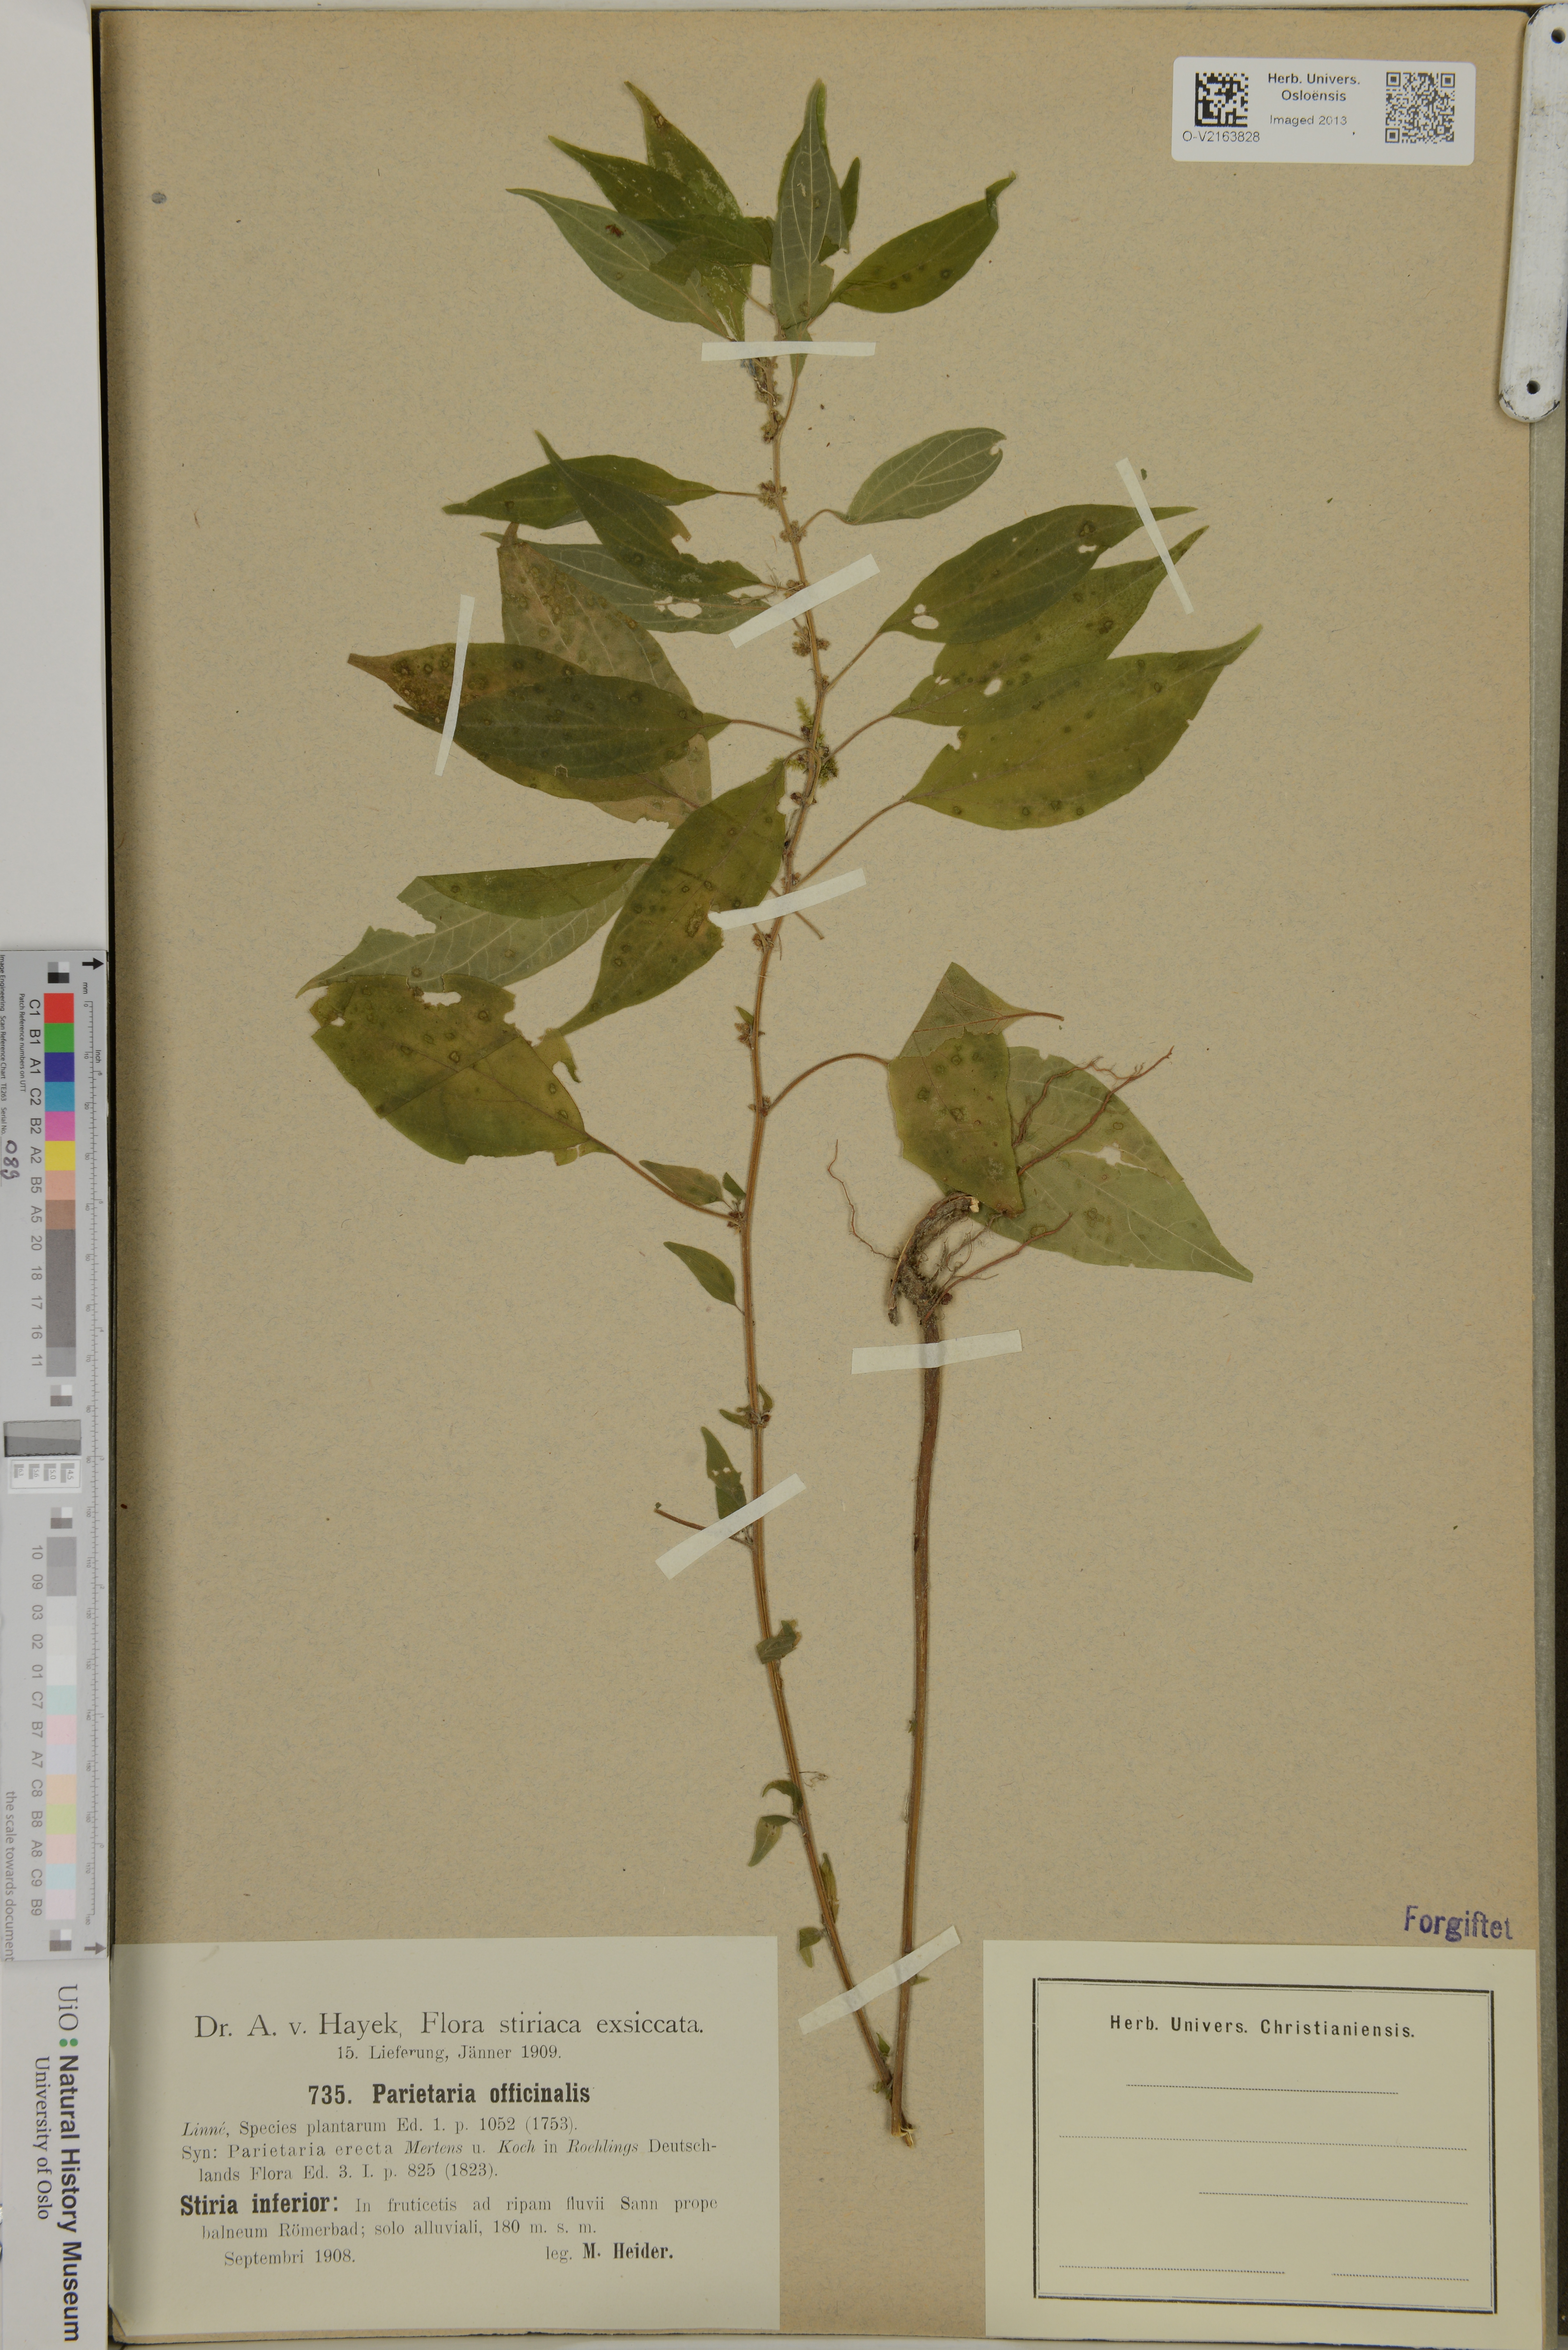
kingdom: Plantae
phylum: Tracheophyta
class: Magnoliopsida
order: Rosales
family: Urticaceae
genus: Parietaria
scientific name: Parietaria officinalis
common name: Eastern pellitory-of-the-wall
